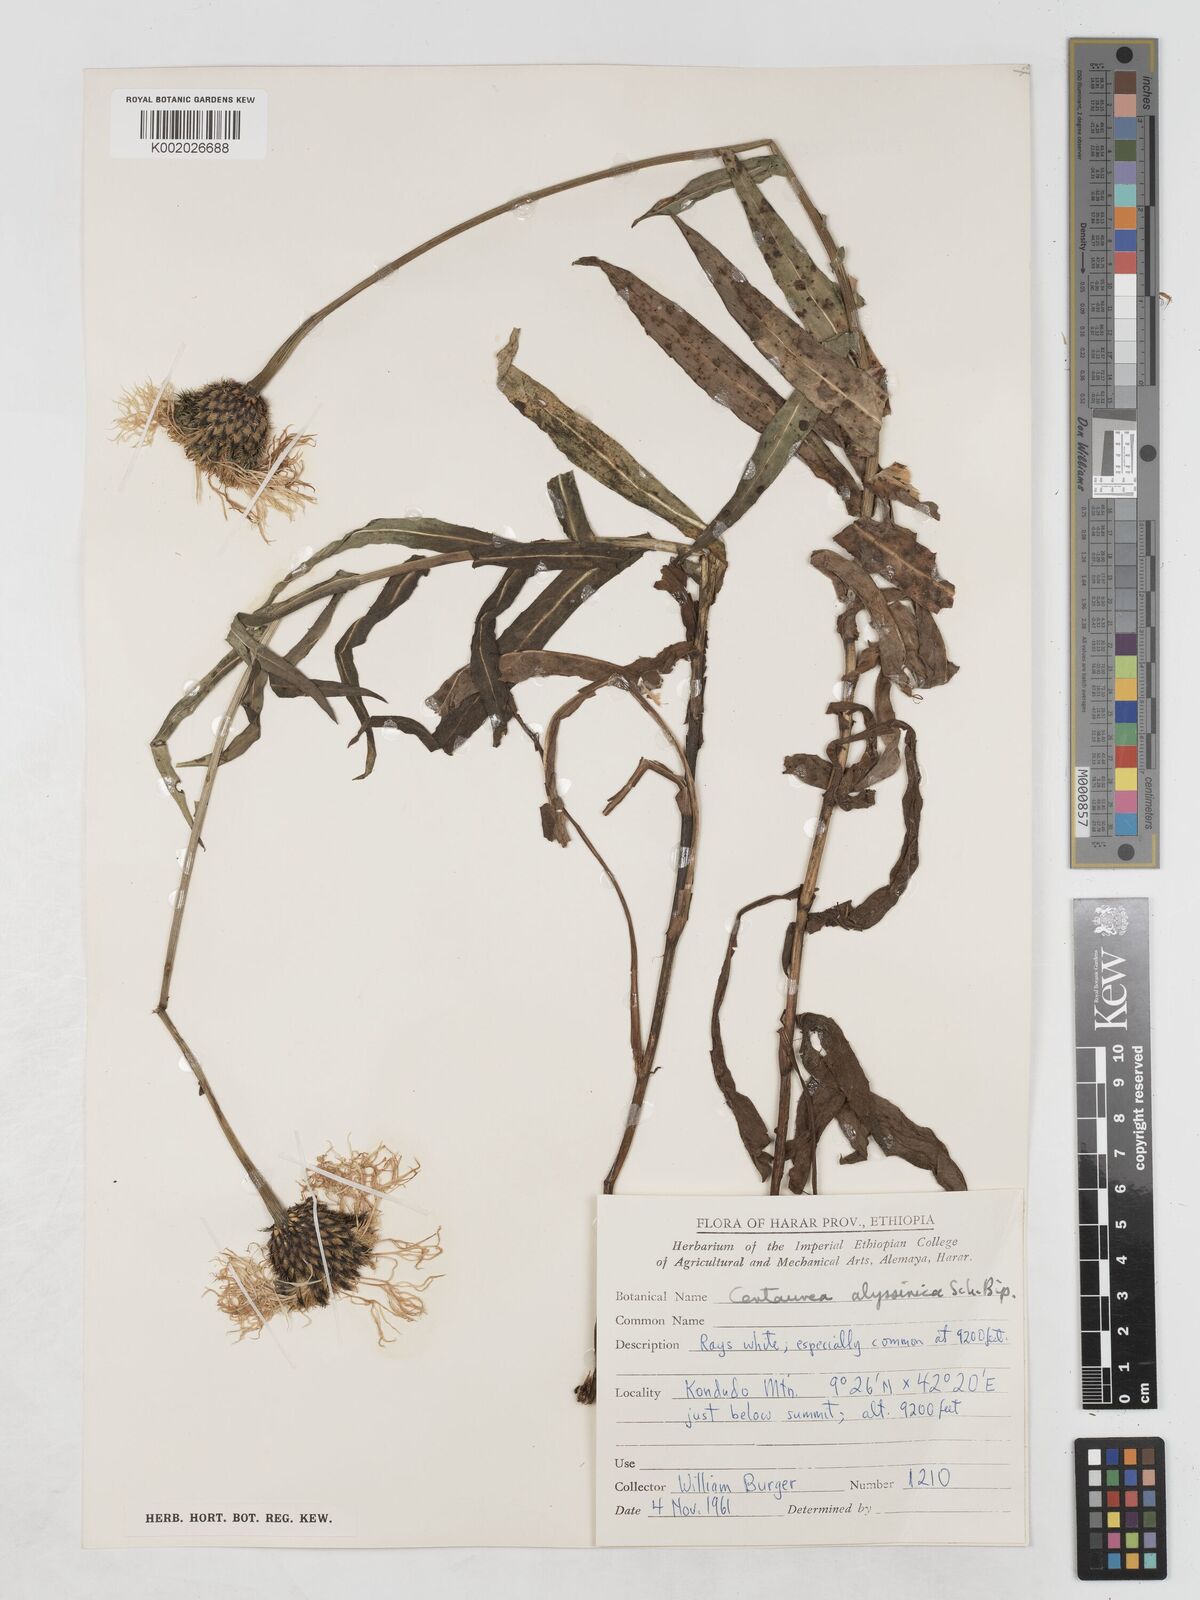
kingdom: Plantae
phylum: Tracheophyta
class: Magnoliopsida
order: Asterales
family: Asteraceae
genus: Plectocephalus
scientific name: Plectocephalus
